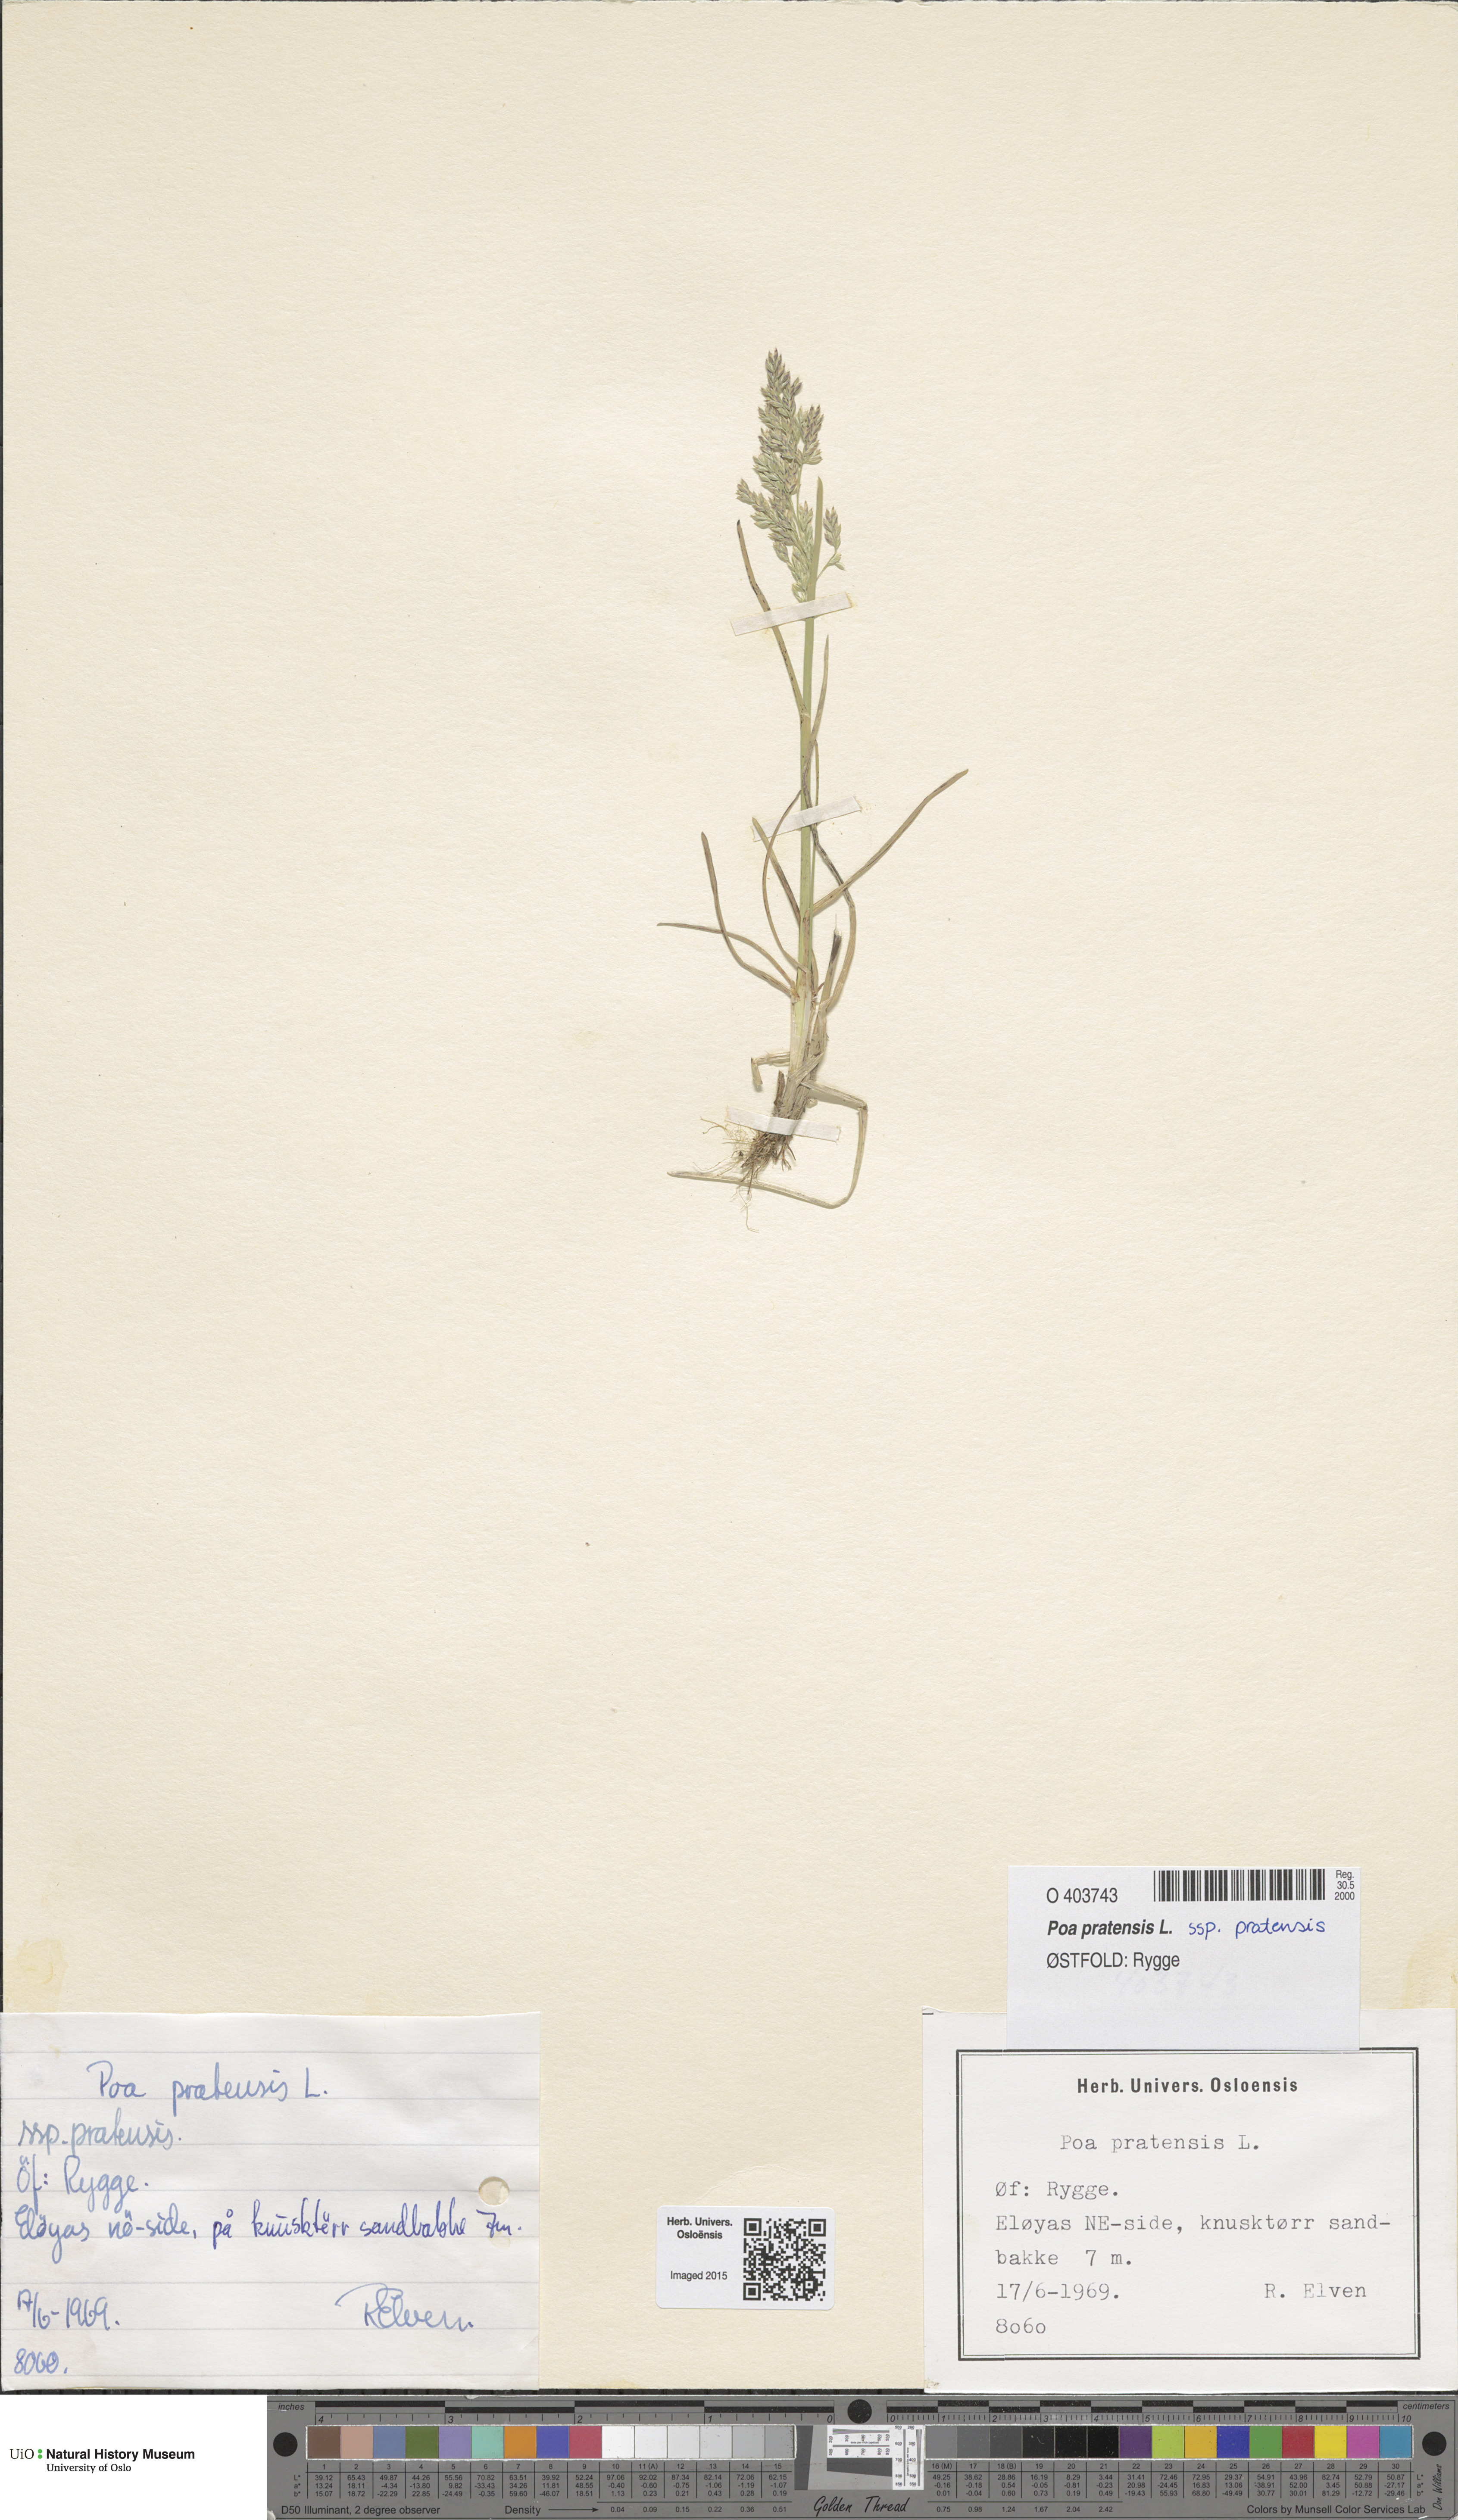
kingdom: Plantae
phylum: Tracheophyta
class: Liliopsida
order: Poales
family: Poaceae
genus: Poa
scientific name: Poa pratensis
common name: Kentucky bluegrass
